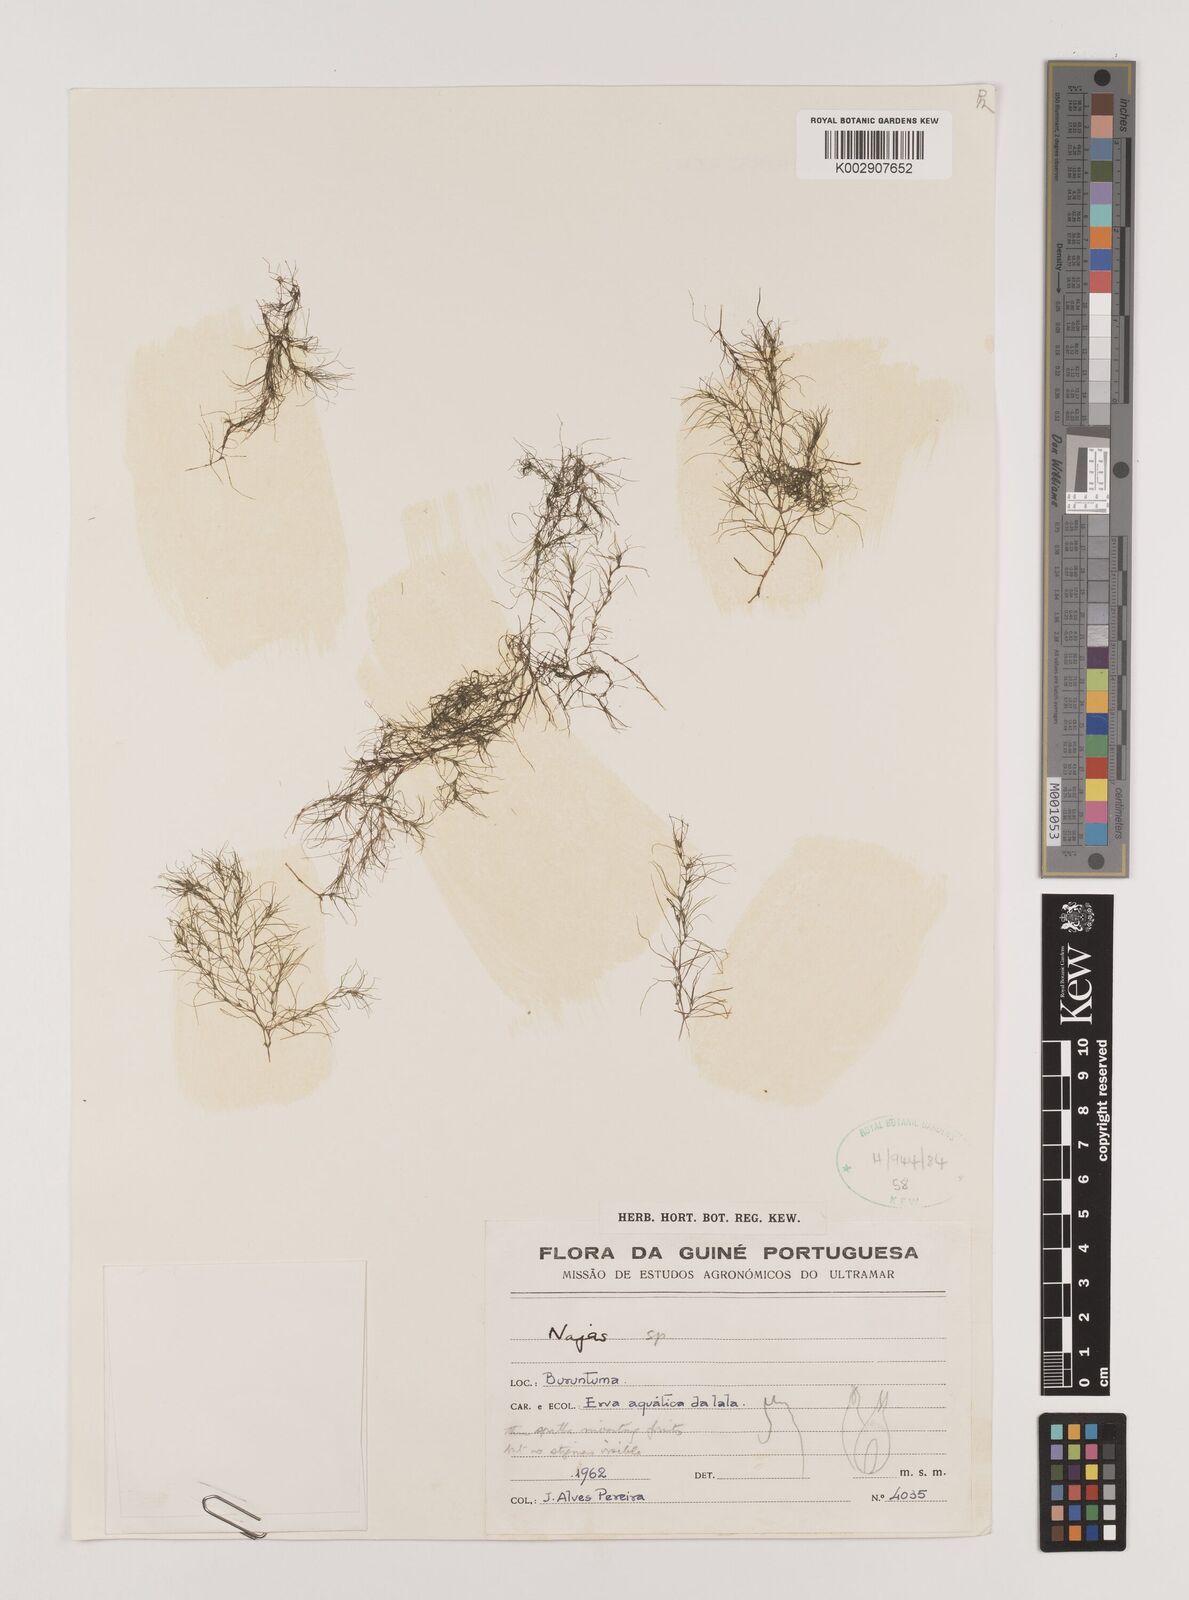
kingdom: Plantae
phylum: Tracheophyta
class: Liliopsida
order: Alismatales
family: Hydrocharitaceae
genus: Najas
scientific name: Najas
